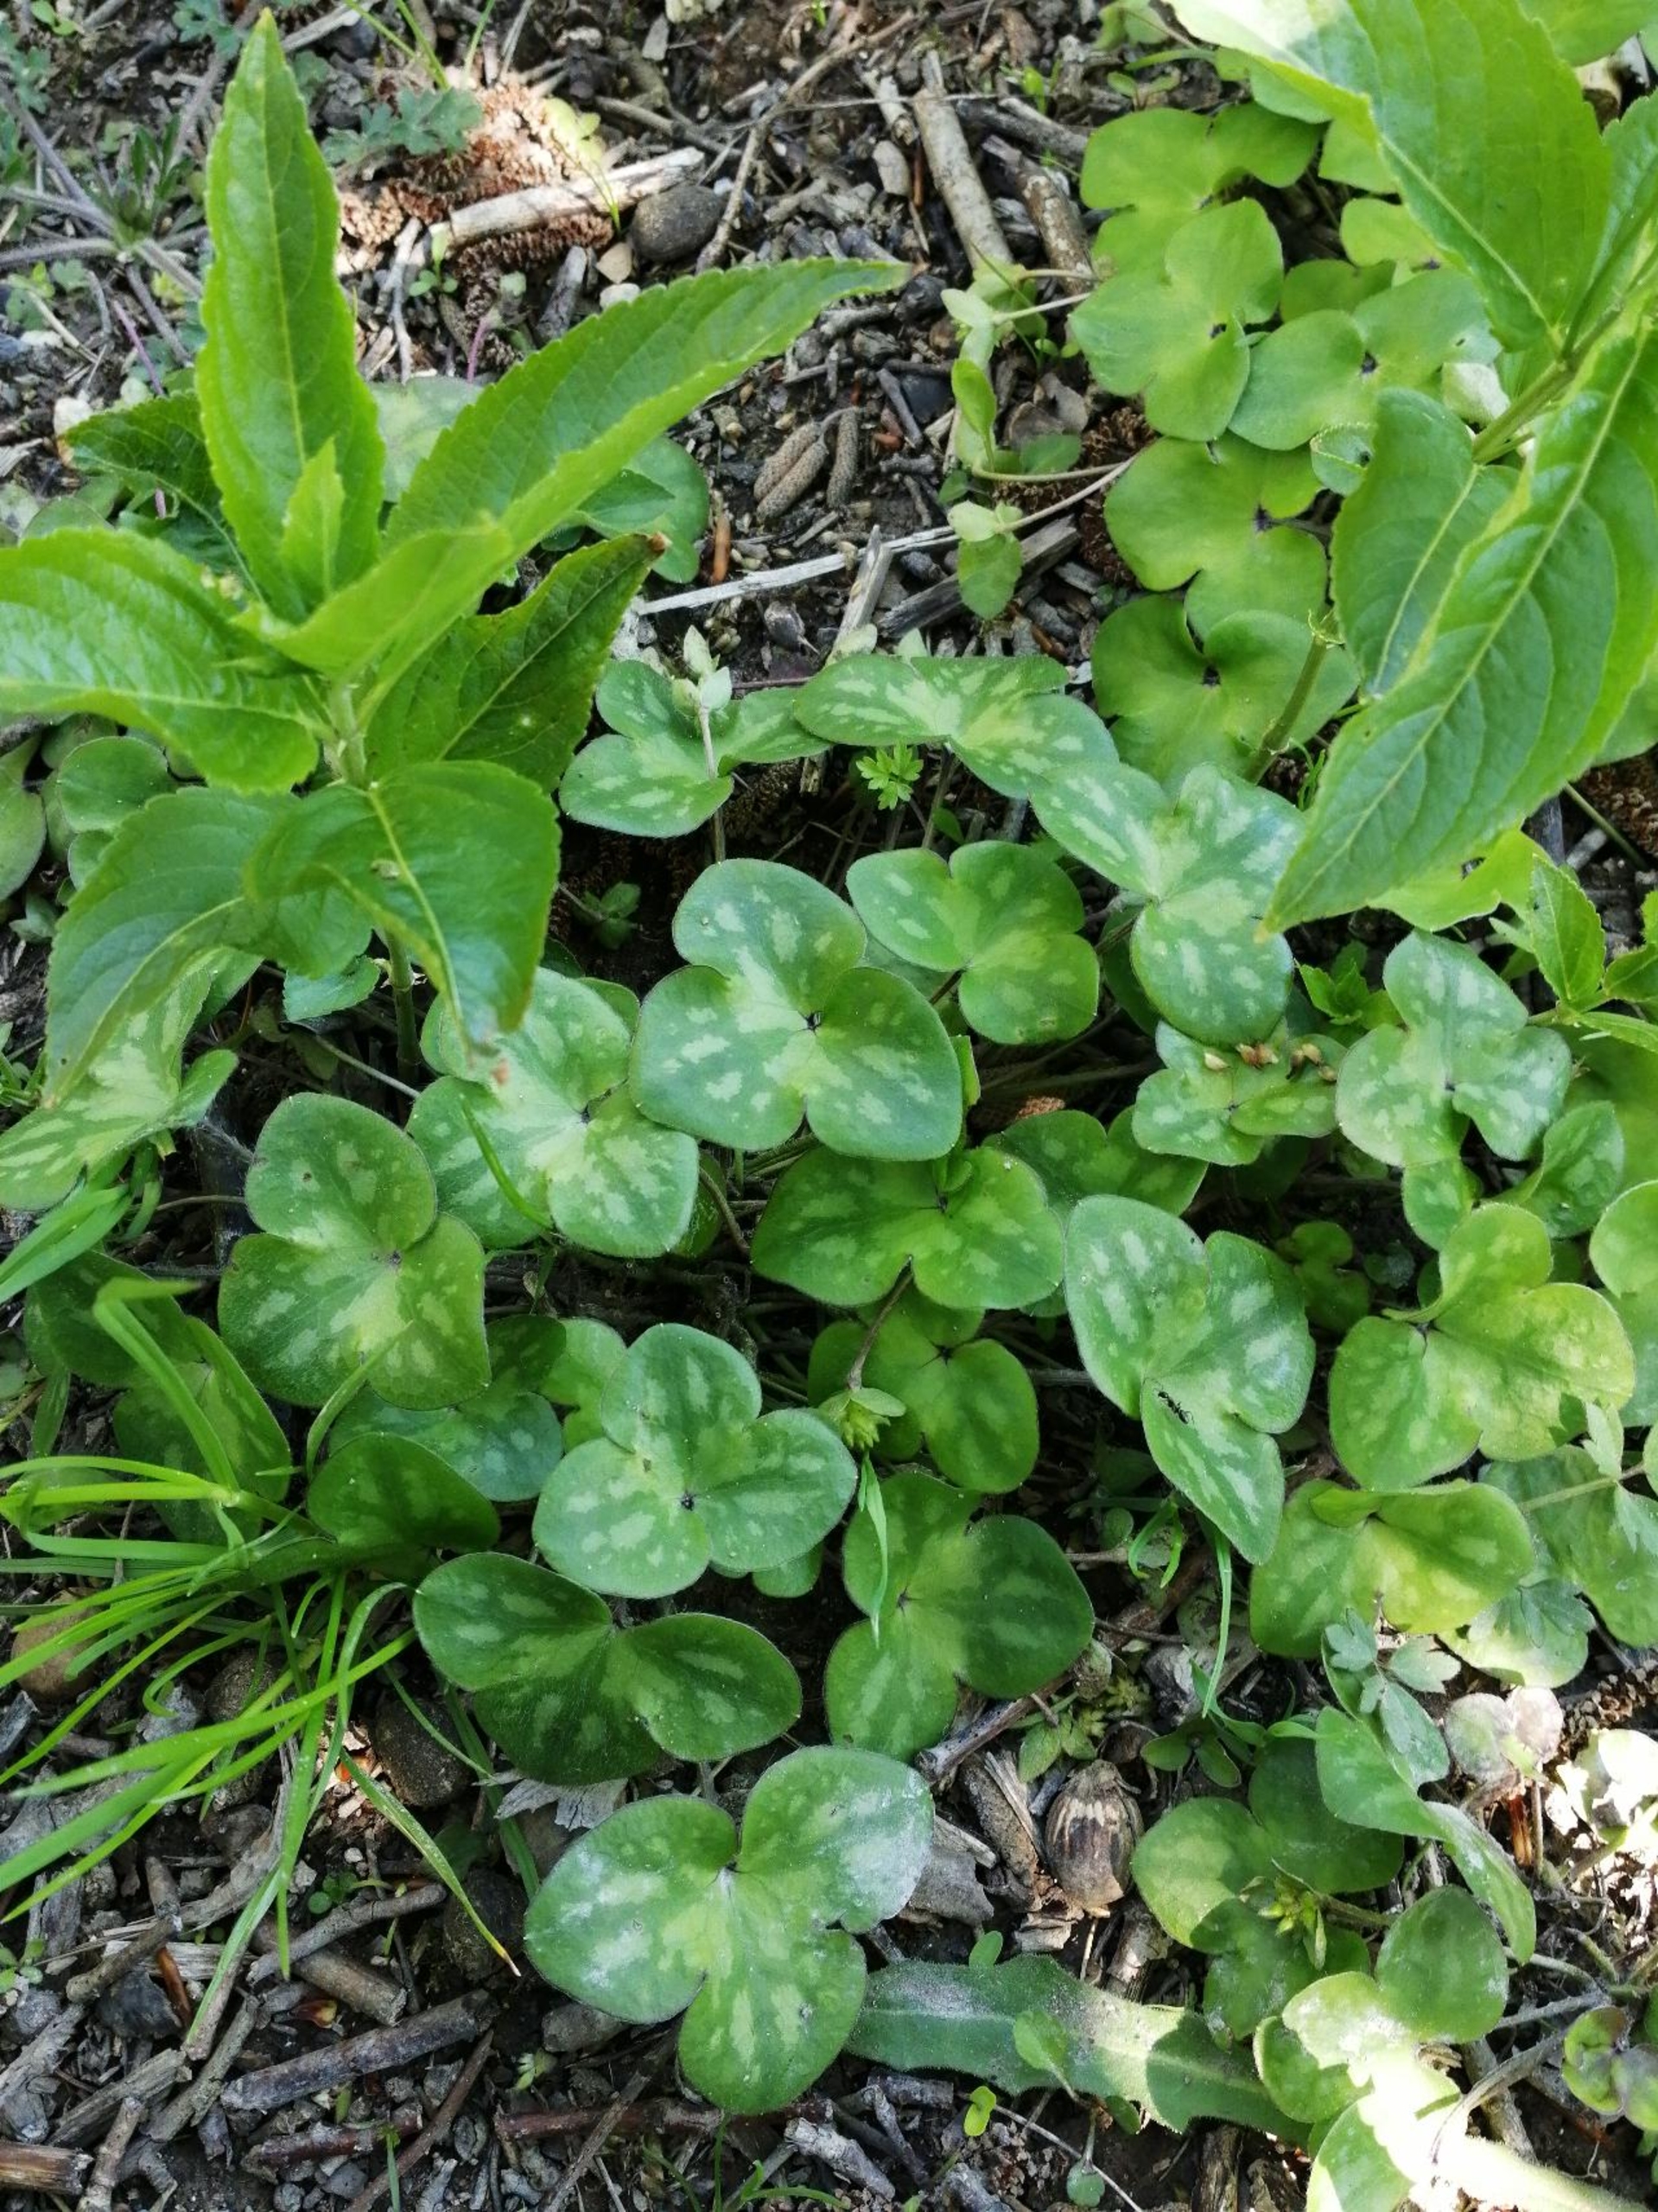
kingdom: Plantae
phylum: Tracheophyta
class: Magnoliopsida
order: Ranunculales
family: Ranunculaceae
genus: Hepatica
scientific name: Hepatica nobilis
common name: Blå anemone
